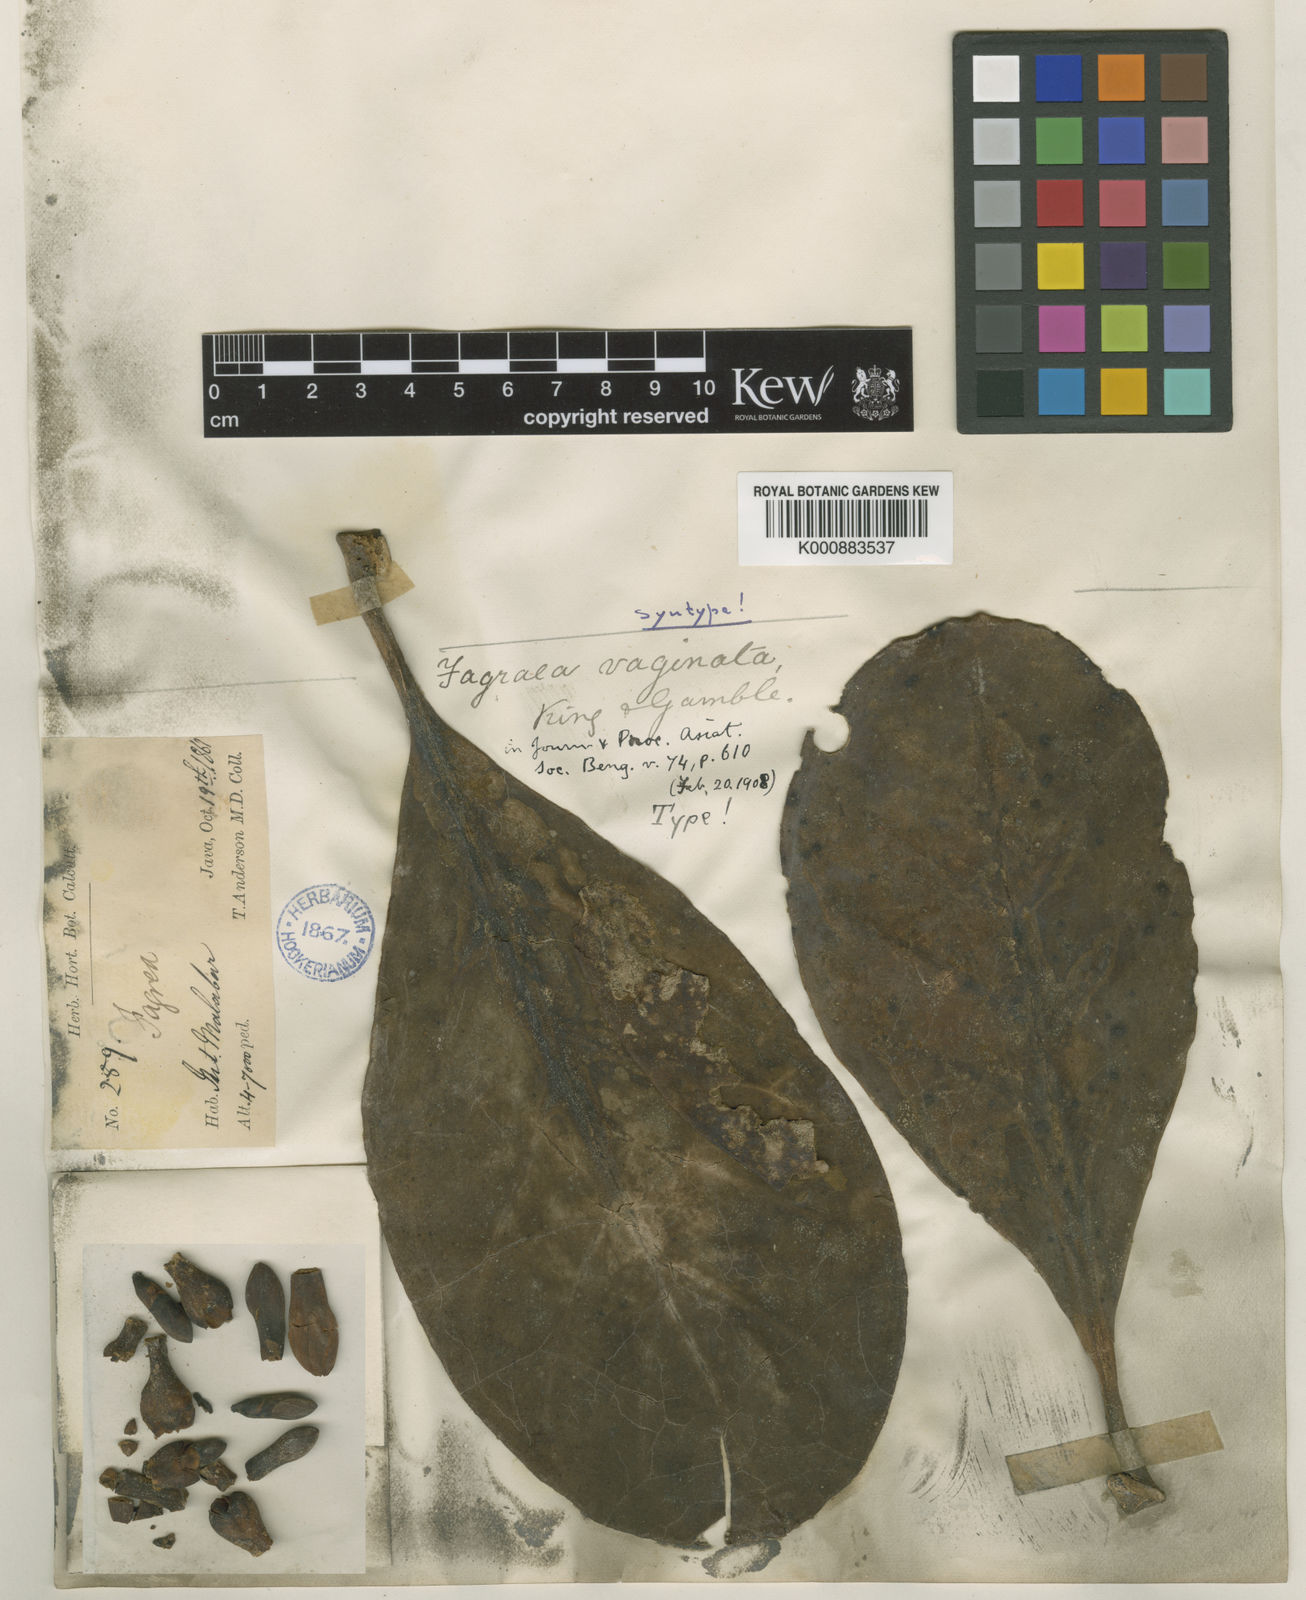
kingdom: Plantae
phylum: Tracheophyta
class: Magnoliopsida
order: Gentianales
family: Gentianaceae
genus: Fagraea
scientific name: Fagraea blumei
